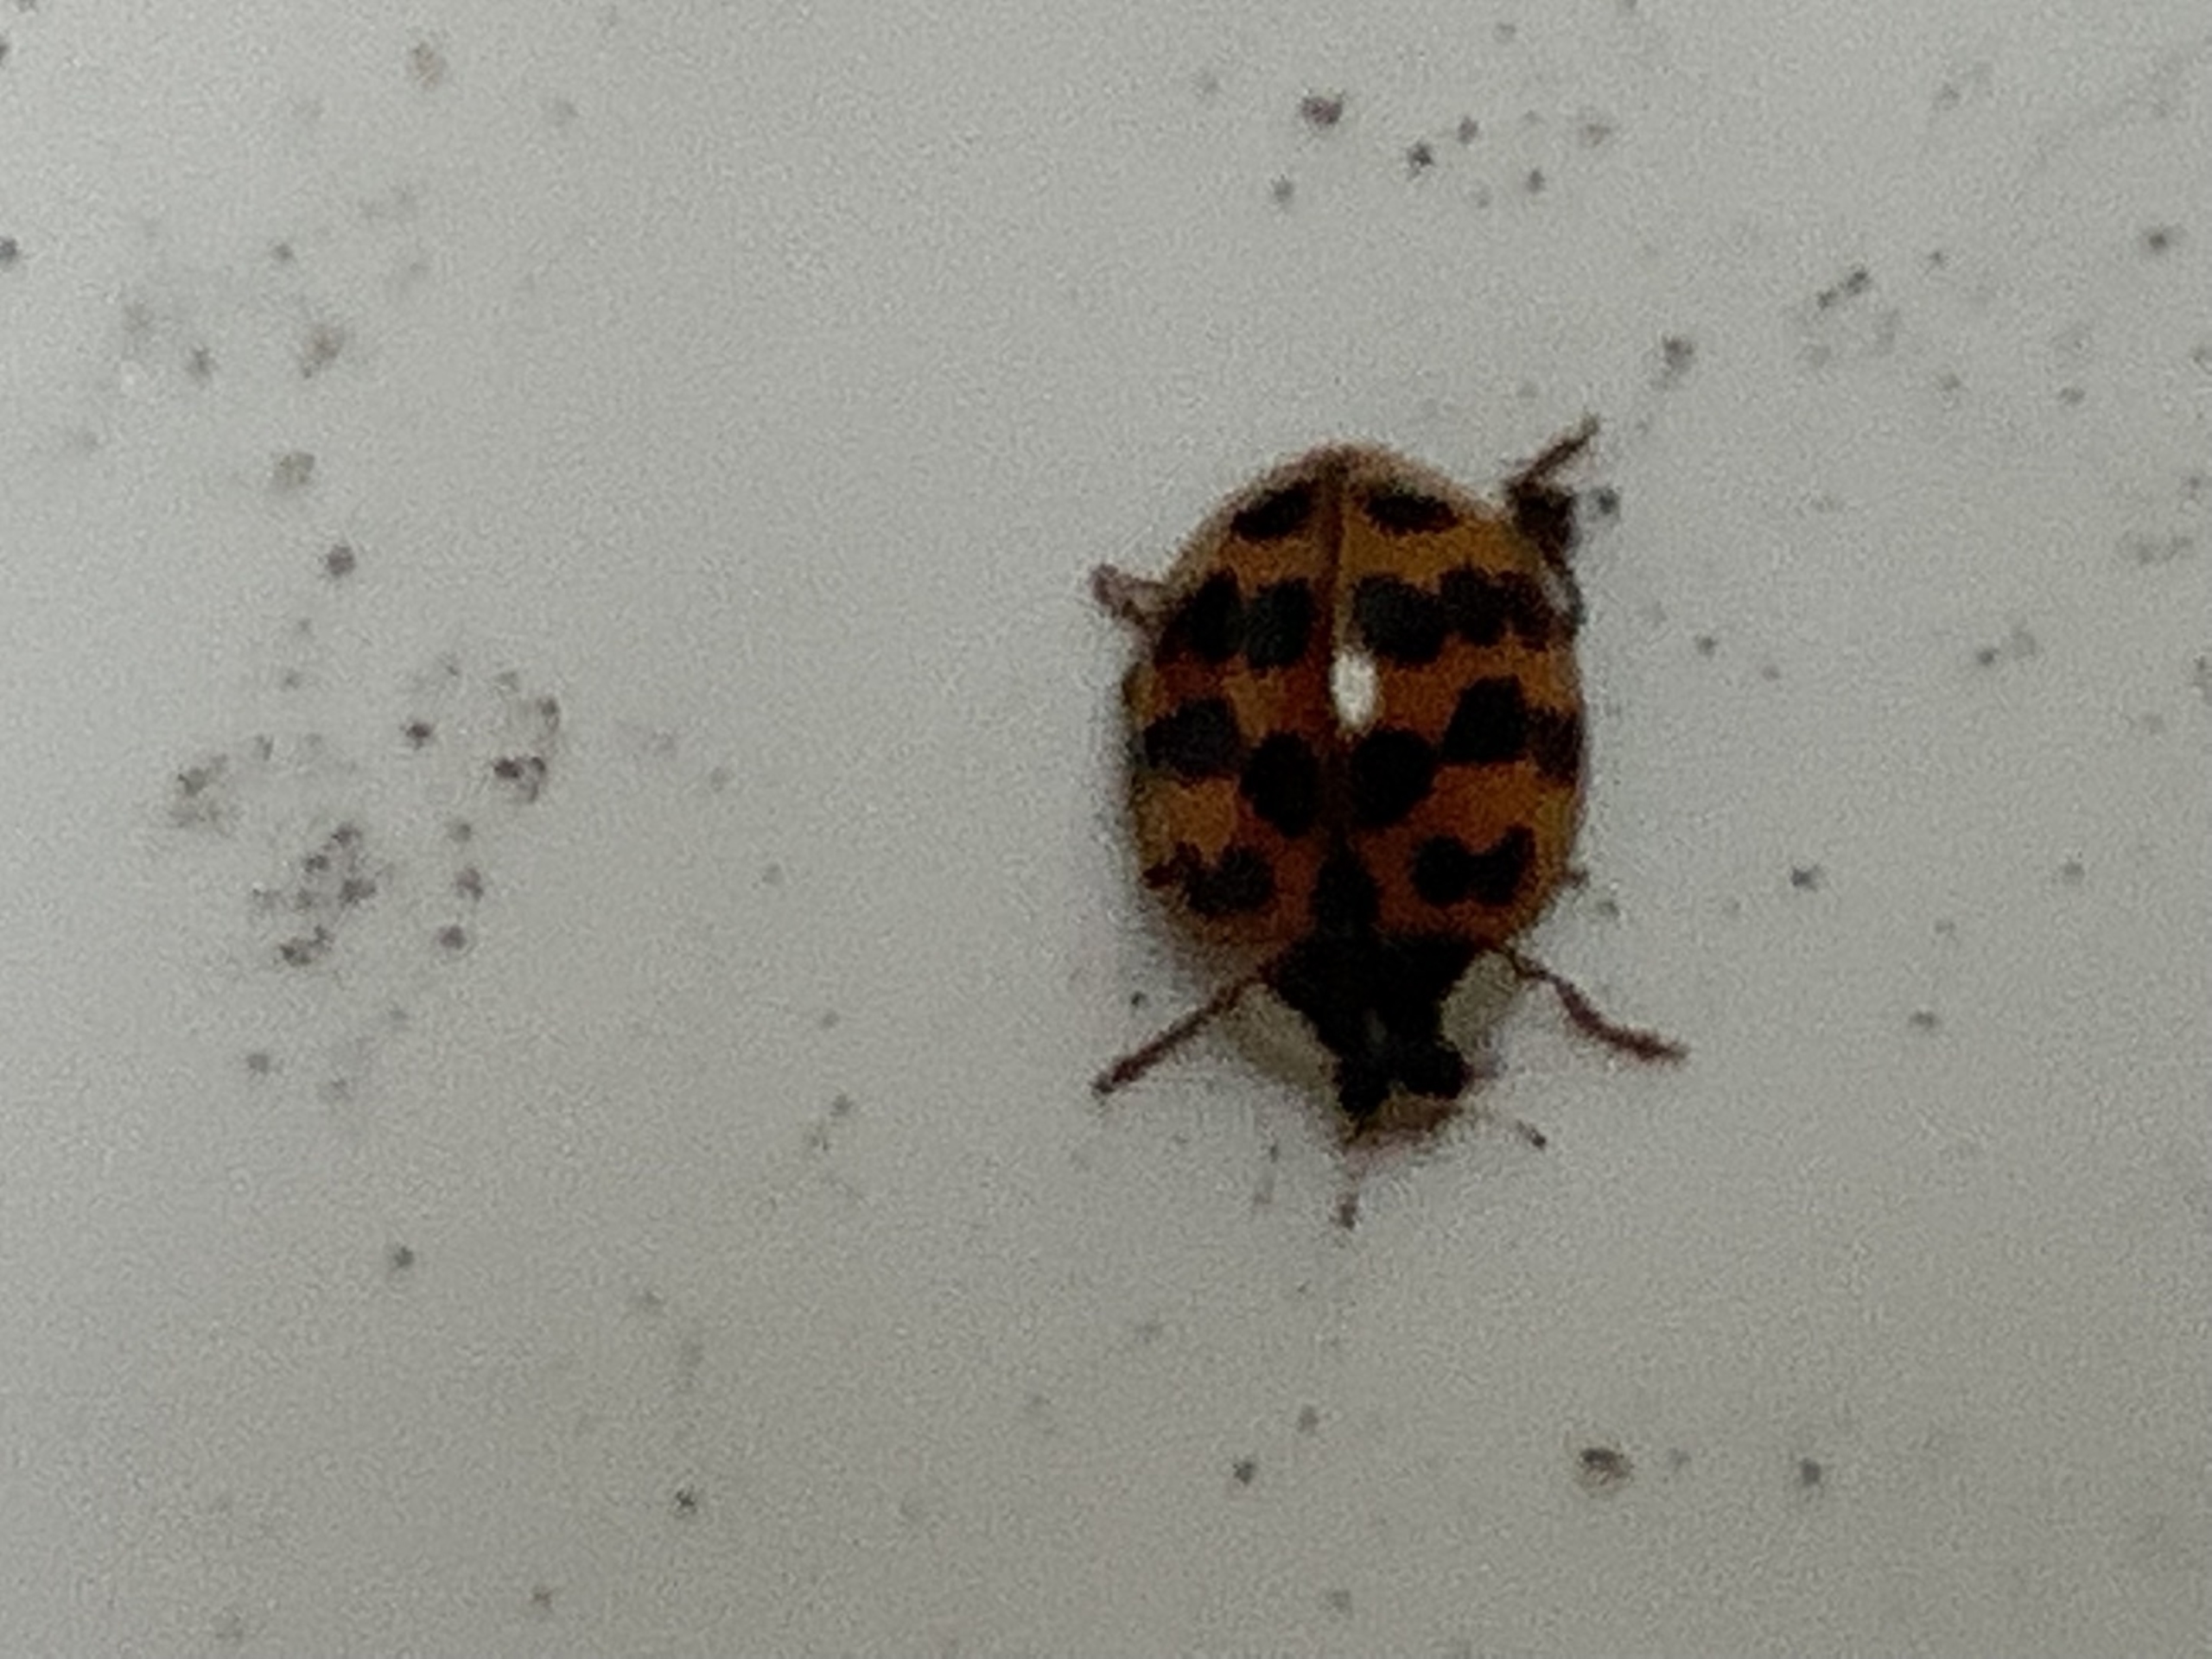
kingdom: Animalia
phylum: Arthropoda
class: Insecta
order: Coleoptera
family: Coccinellidae
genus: Harmonia
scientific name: Harmonia axyridis
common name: Harlekinmariehøne
